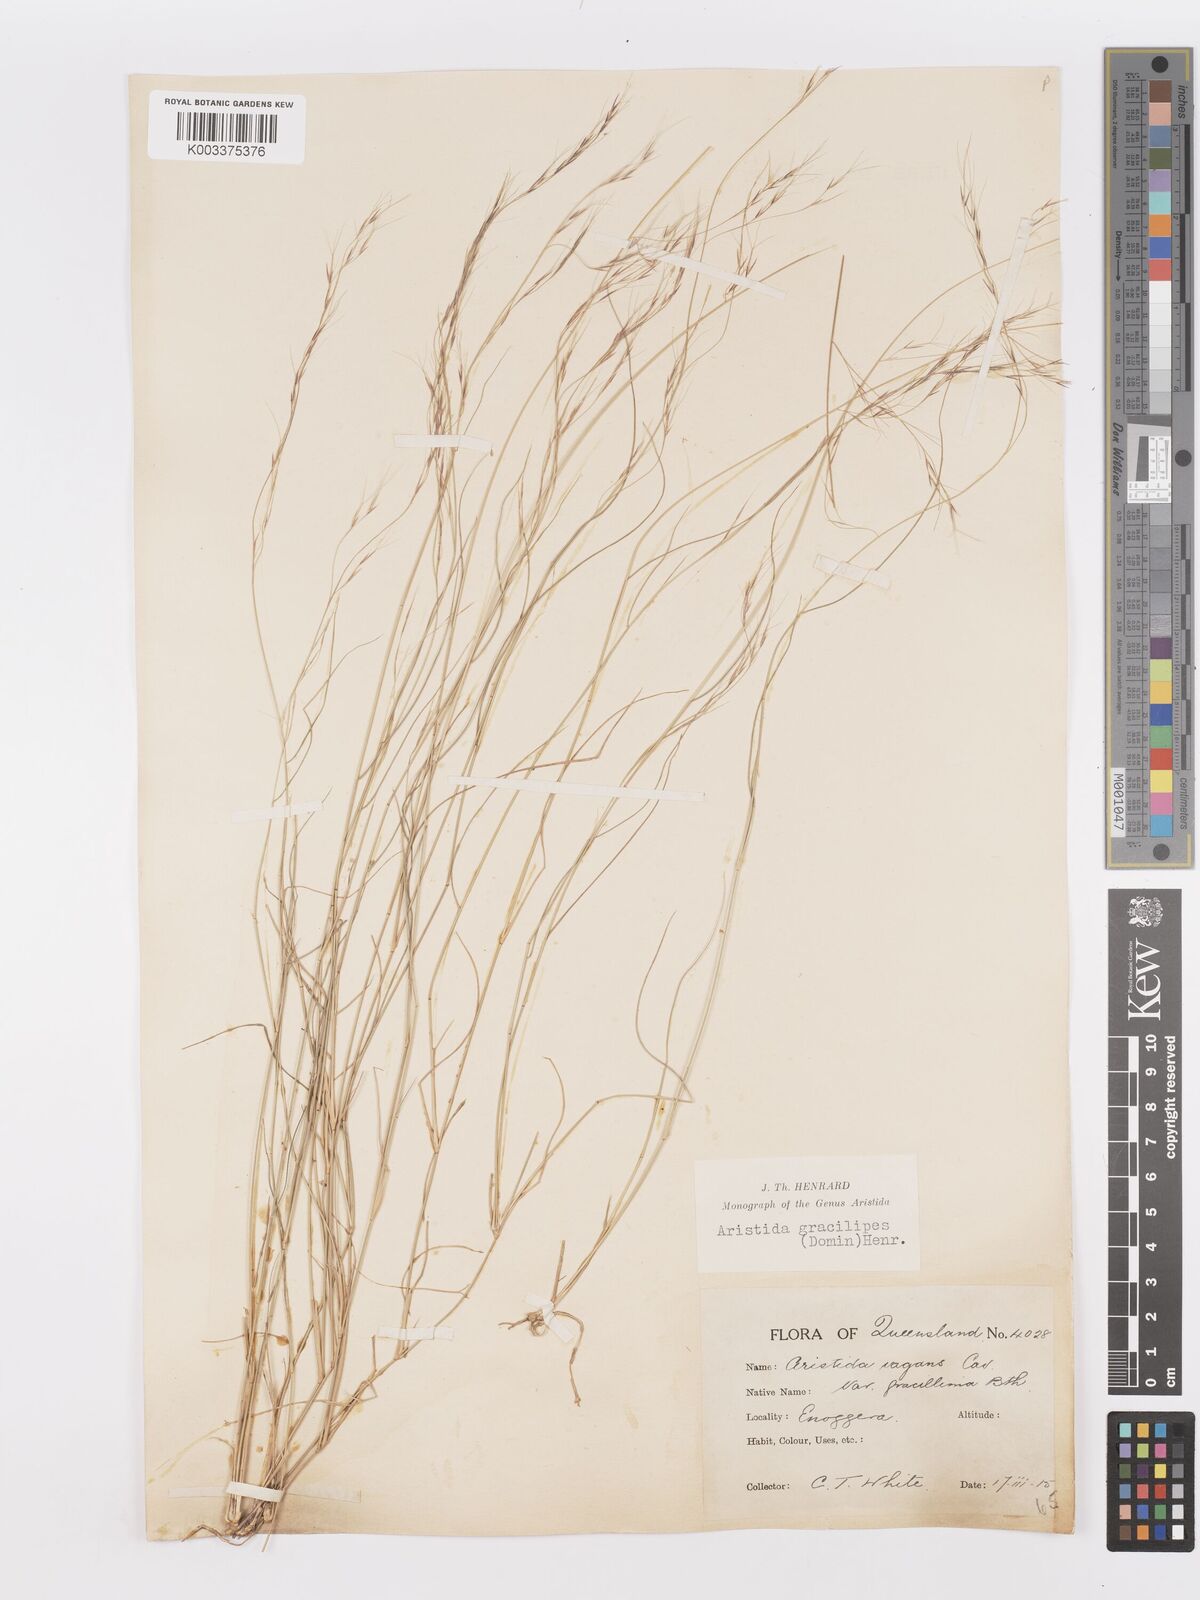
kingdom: Plantae
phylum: Tracheophyta
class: Liliopsida
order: Poales
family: Poaceae
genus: Aristida
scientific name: Aristida gracilipes
